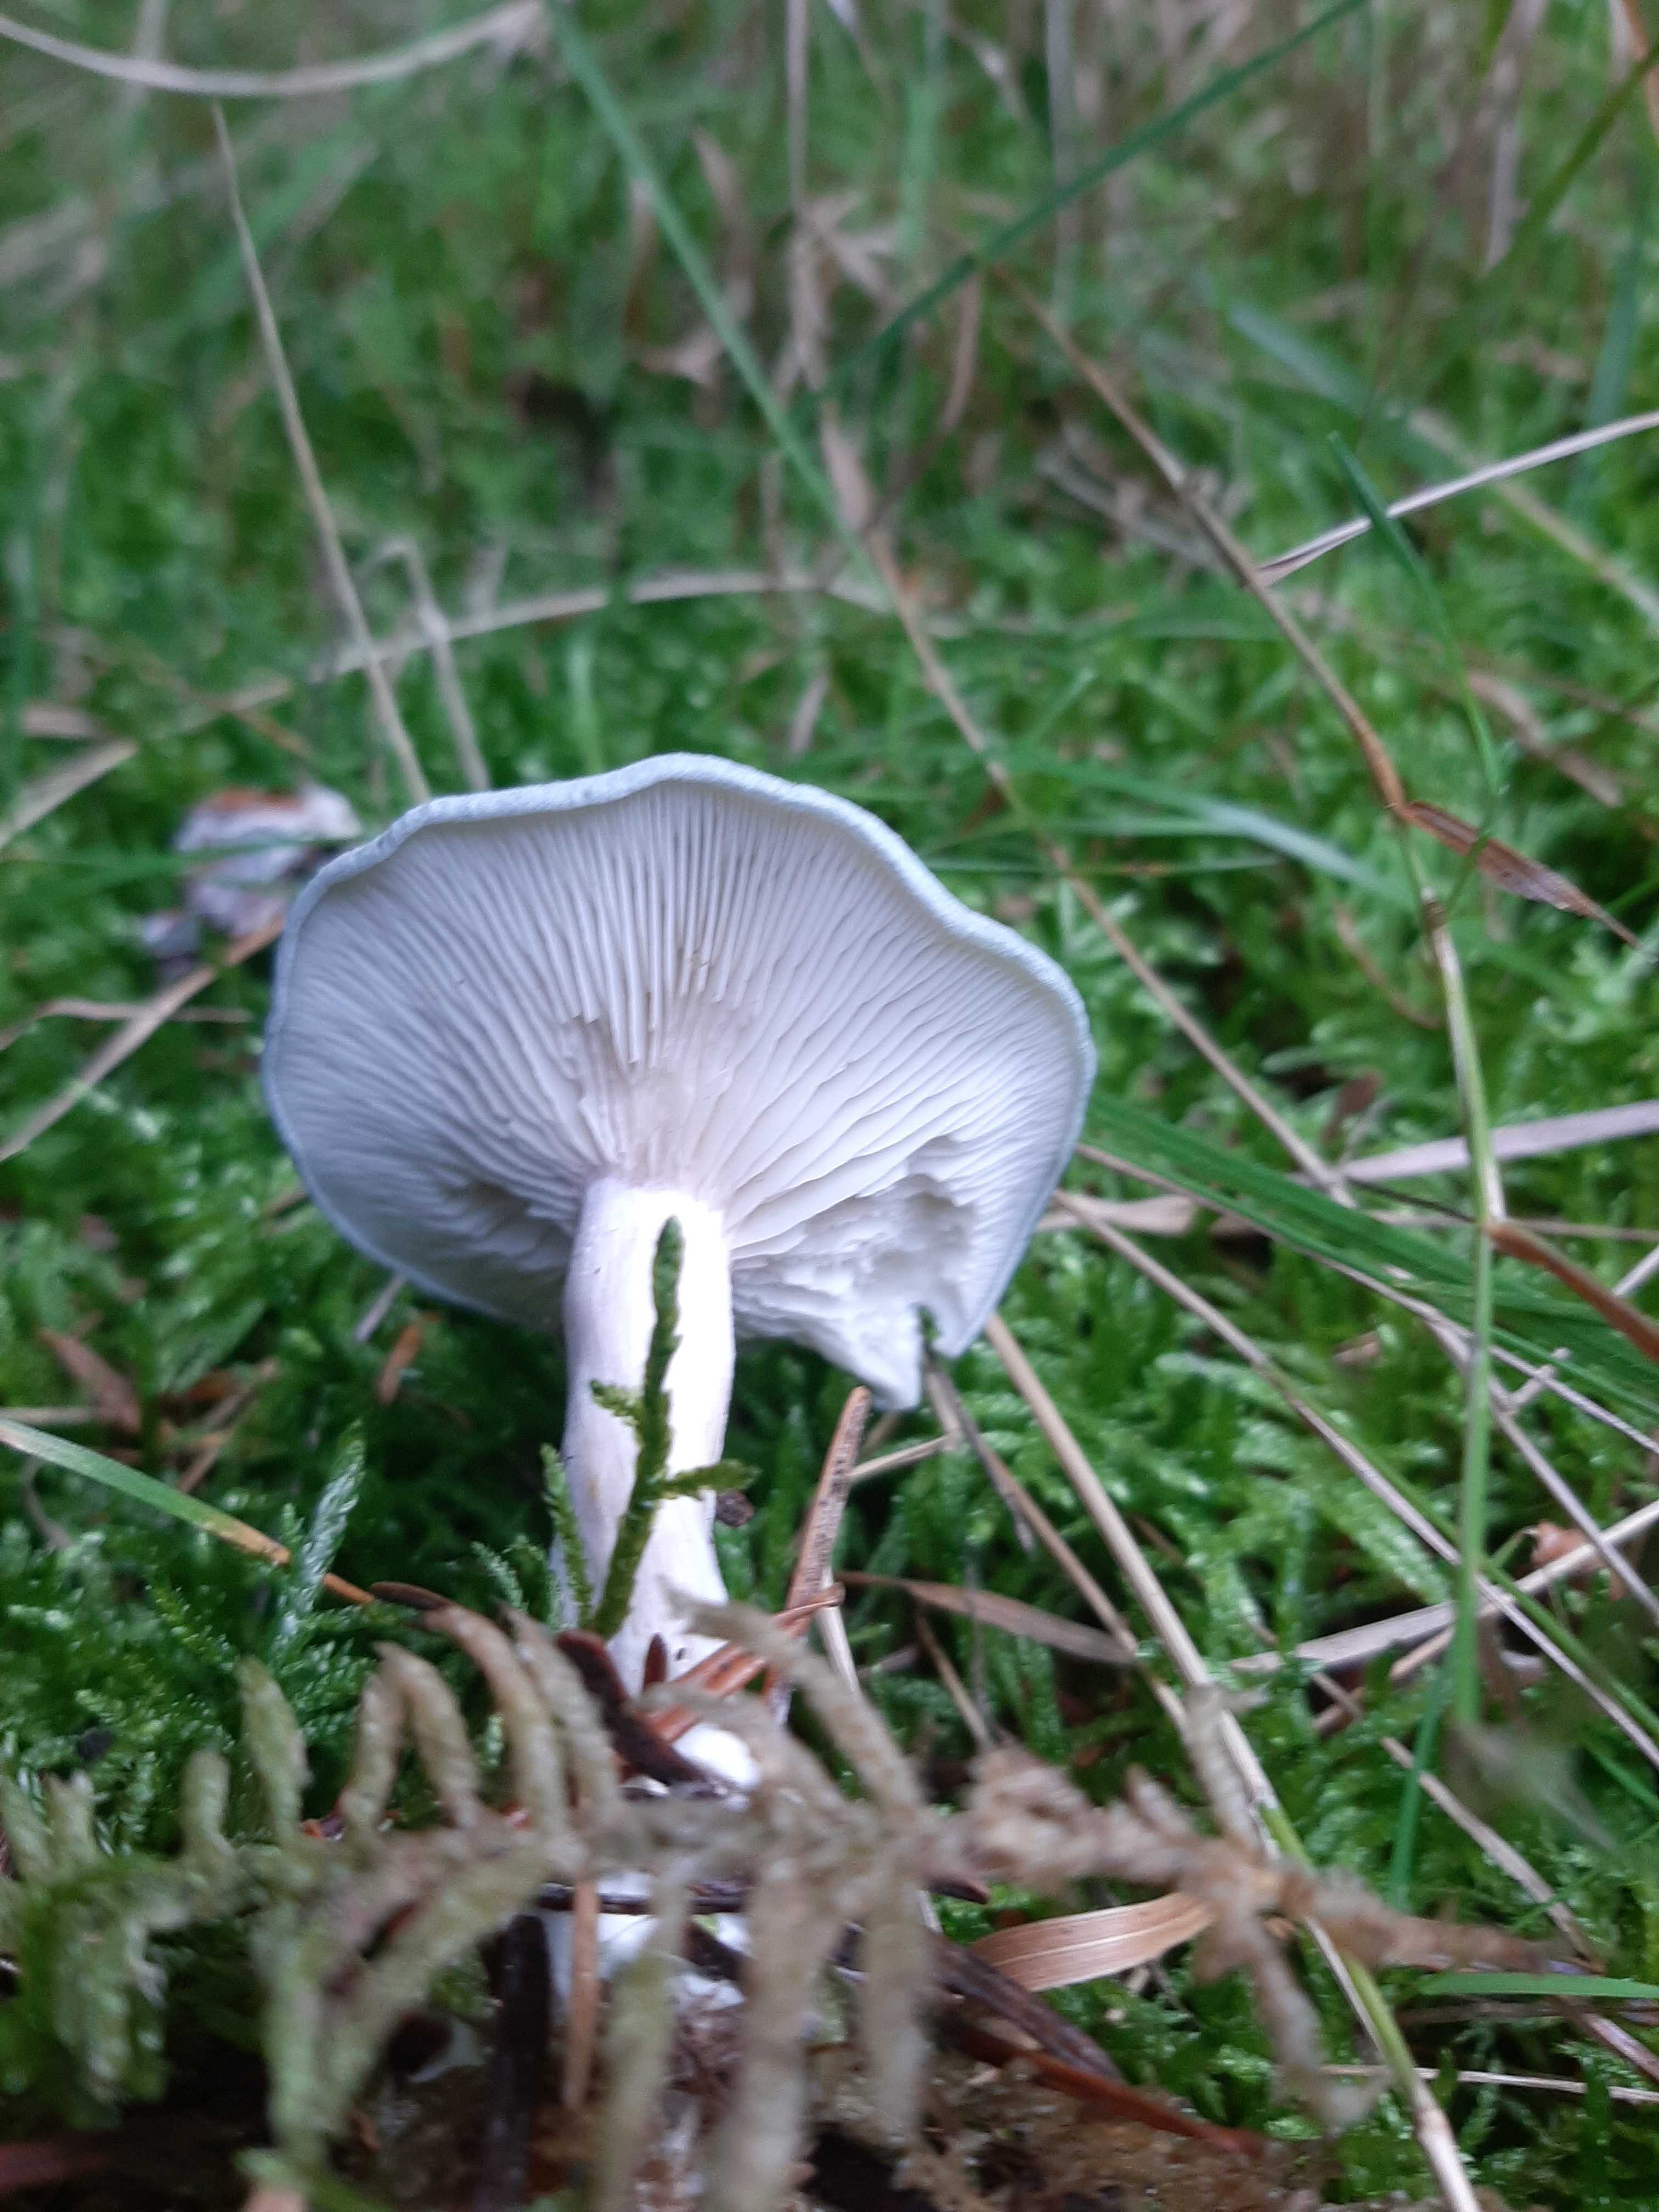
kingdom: Fungi
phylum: Basidiomycota
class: Agaricomycetes
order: Agaricales
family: Tricholomataceae
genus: Clitocybe
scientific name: Clitocybe odora
